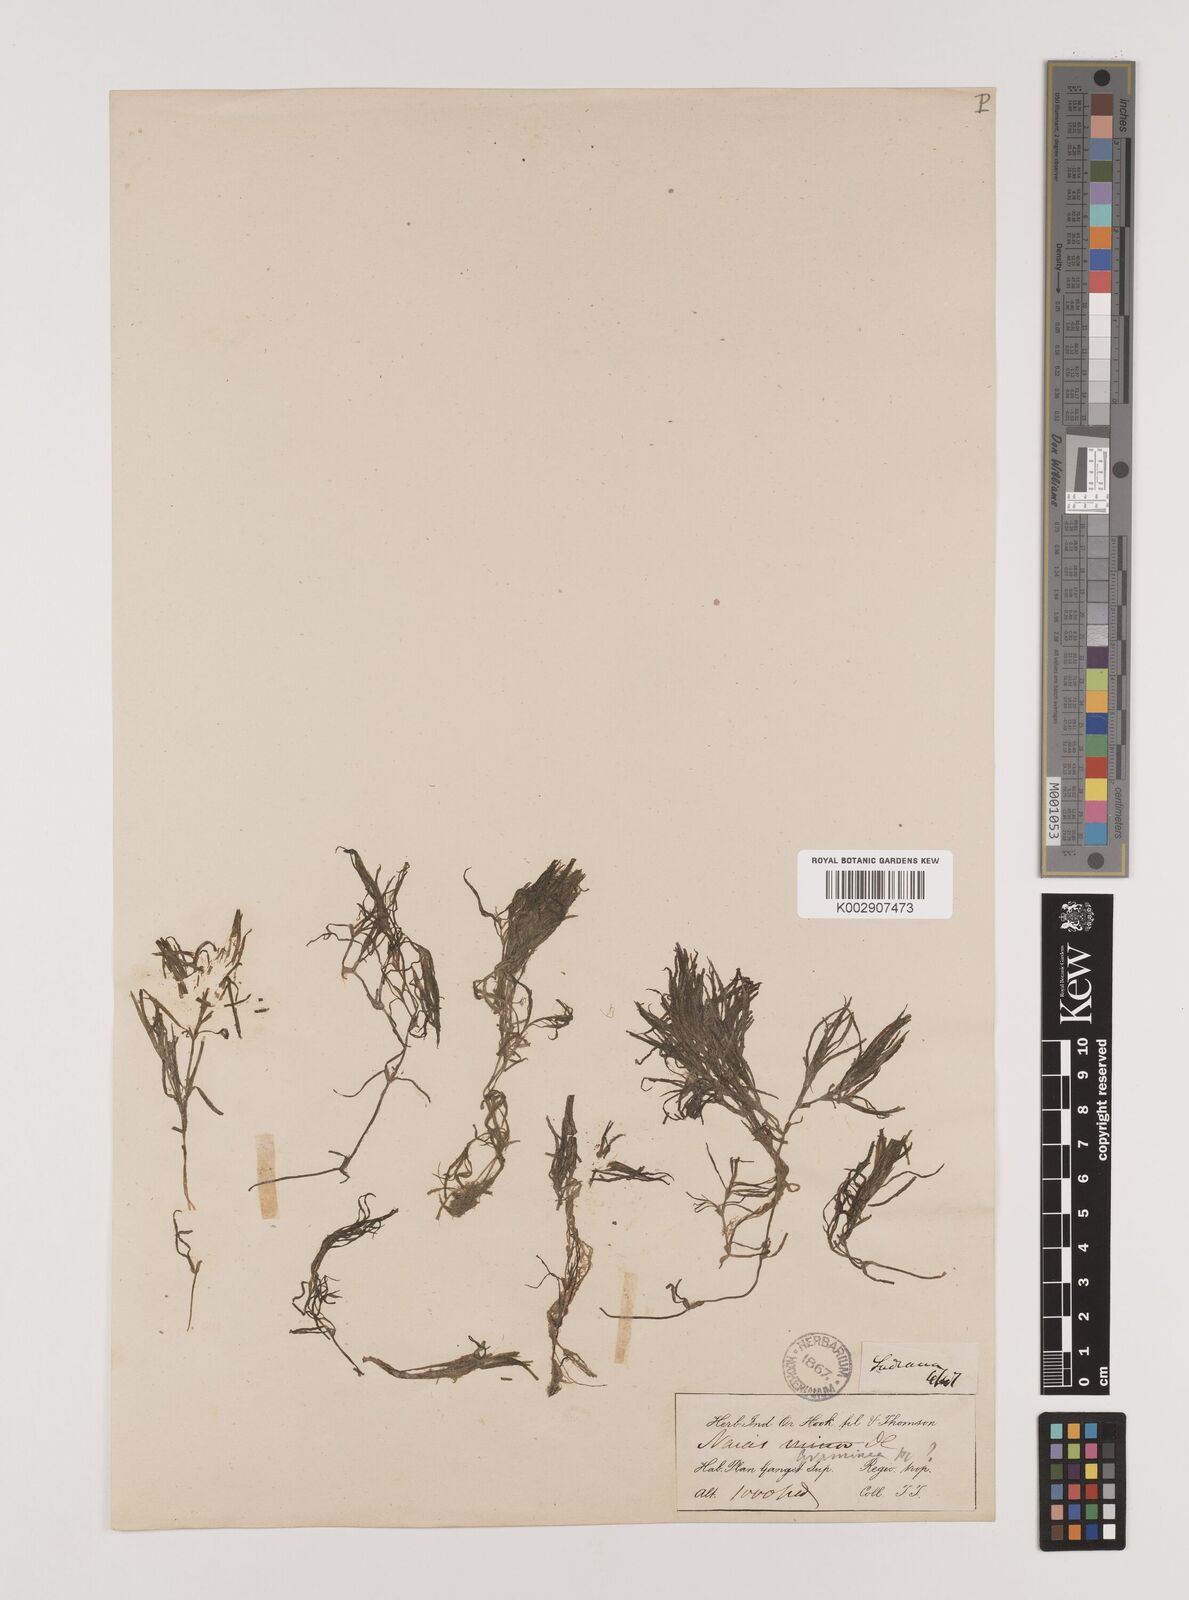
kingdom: Plantae
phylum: Tracheophyta
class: Liliopsida
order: Alismatales
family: Hydrocharitaceae
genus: Najas
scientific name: Najas graminea
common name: Ricefield waternymph
